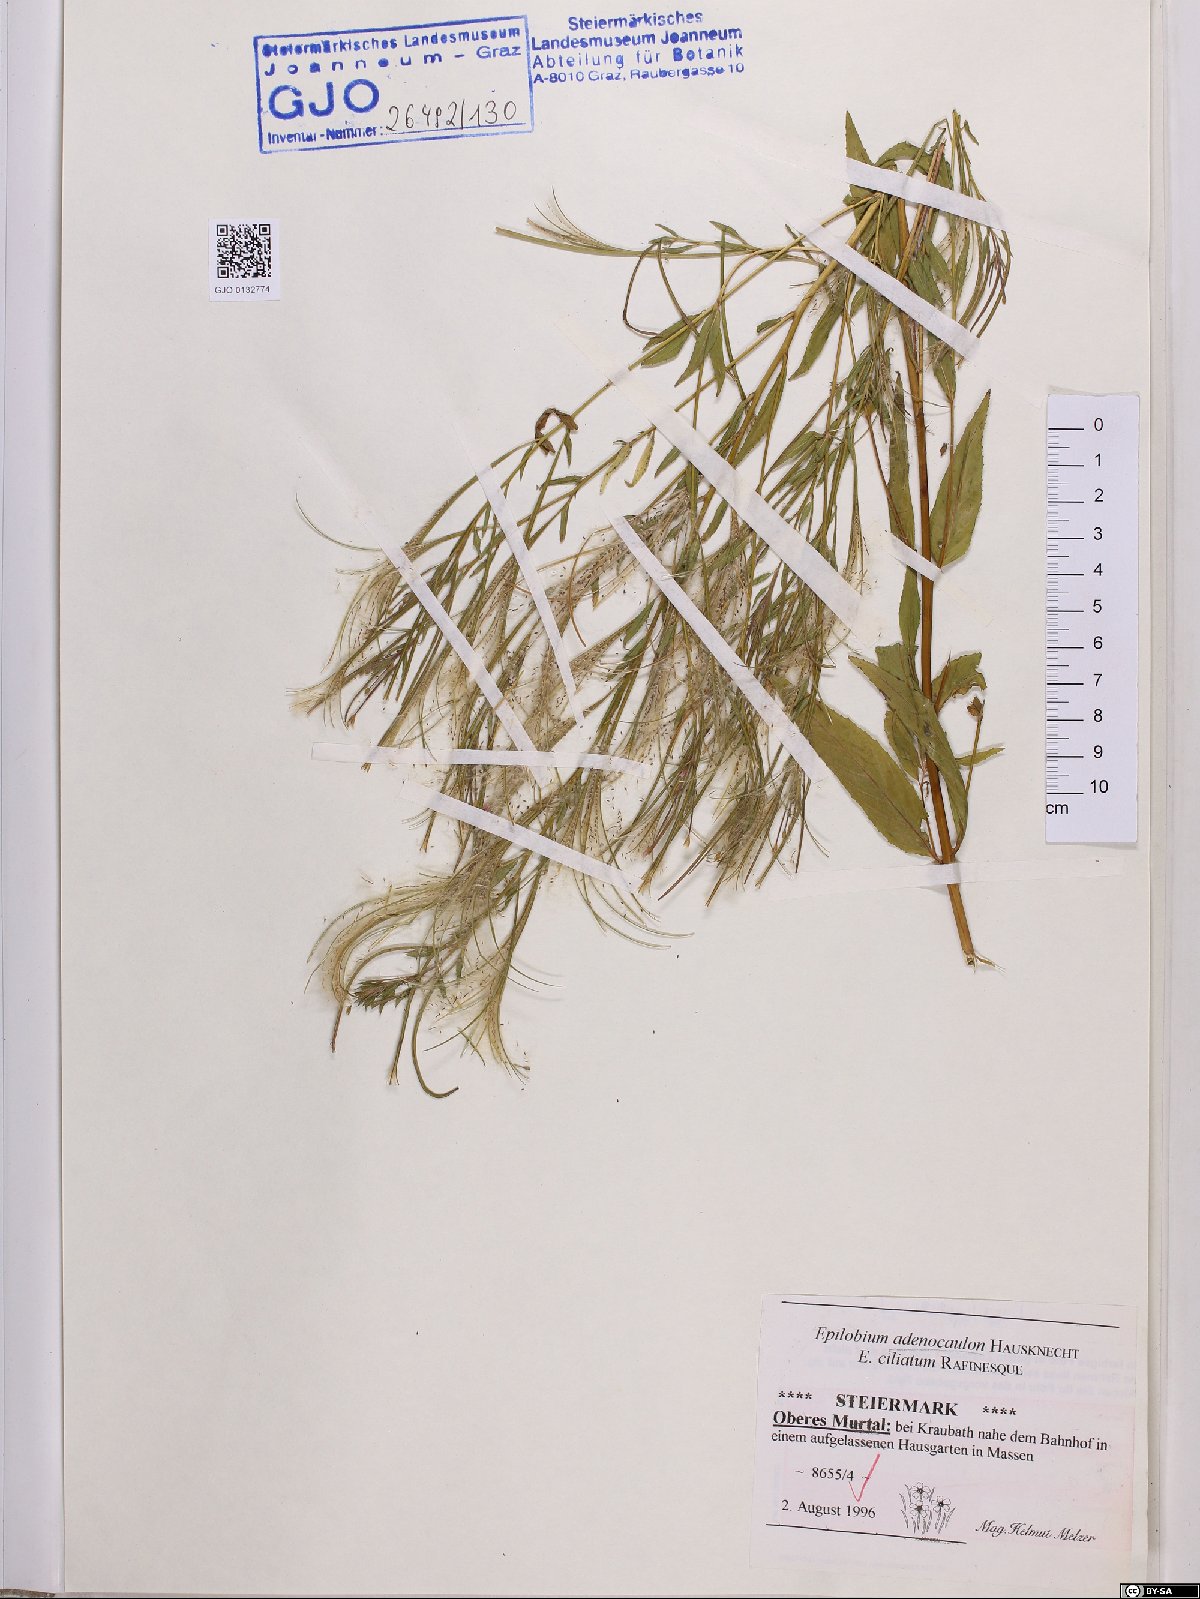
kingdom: Plantae
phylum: Tracheophyta
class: Magnoliopsida
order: Myrtales
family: Onagraceae
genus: Epilobium
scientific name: Epilobium ciliatum
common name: American willowherb
